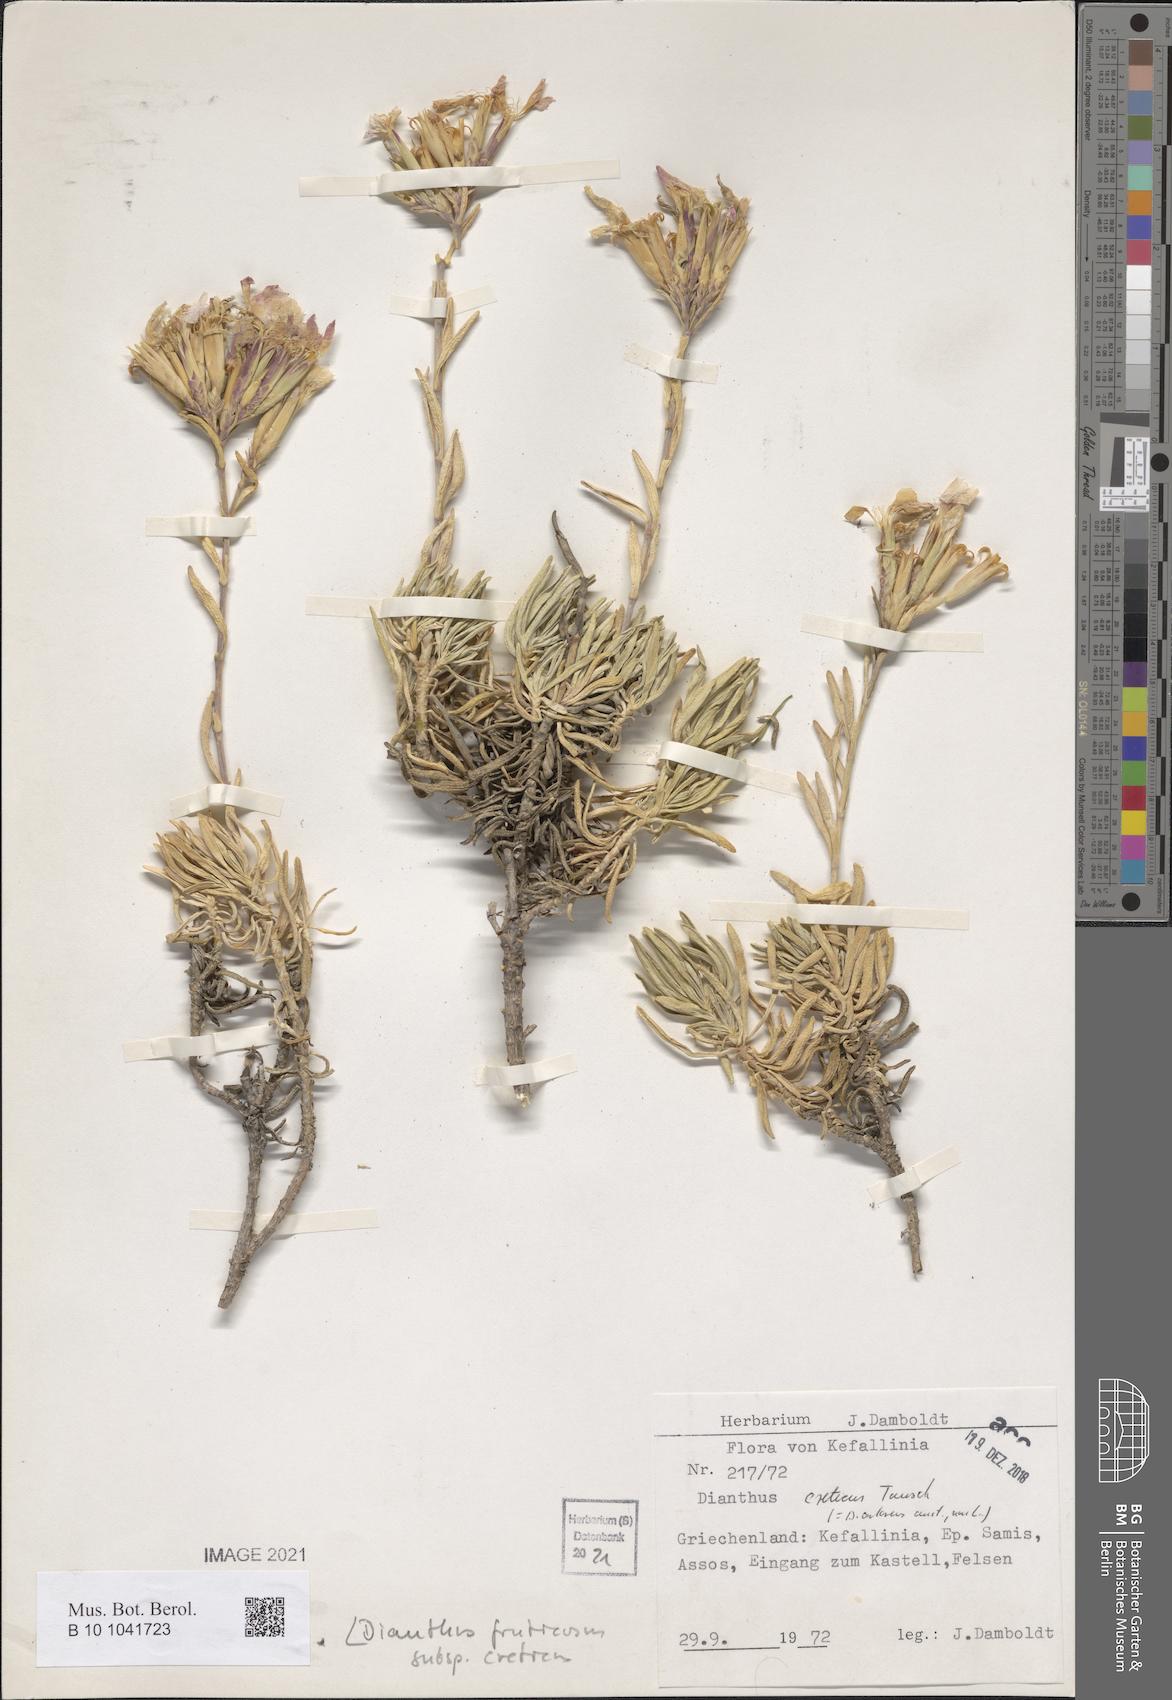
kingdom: Plantae
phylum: Tracheophyta
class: Magnoliopsida
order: Caryophyllales
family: Caryophyllaceae
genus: Dianthus
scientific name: Dianthus fruticosus
